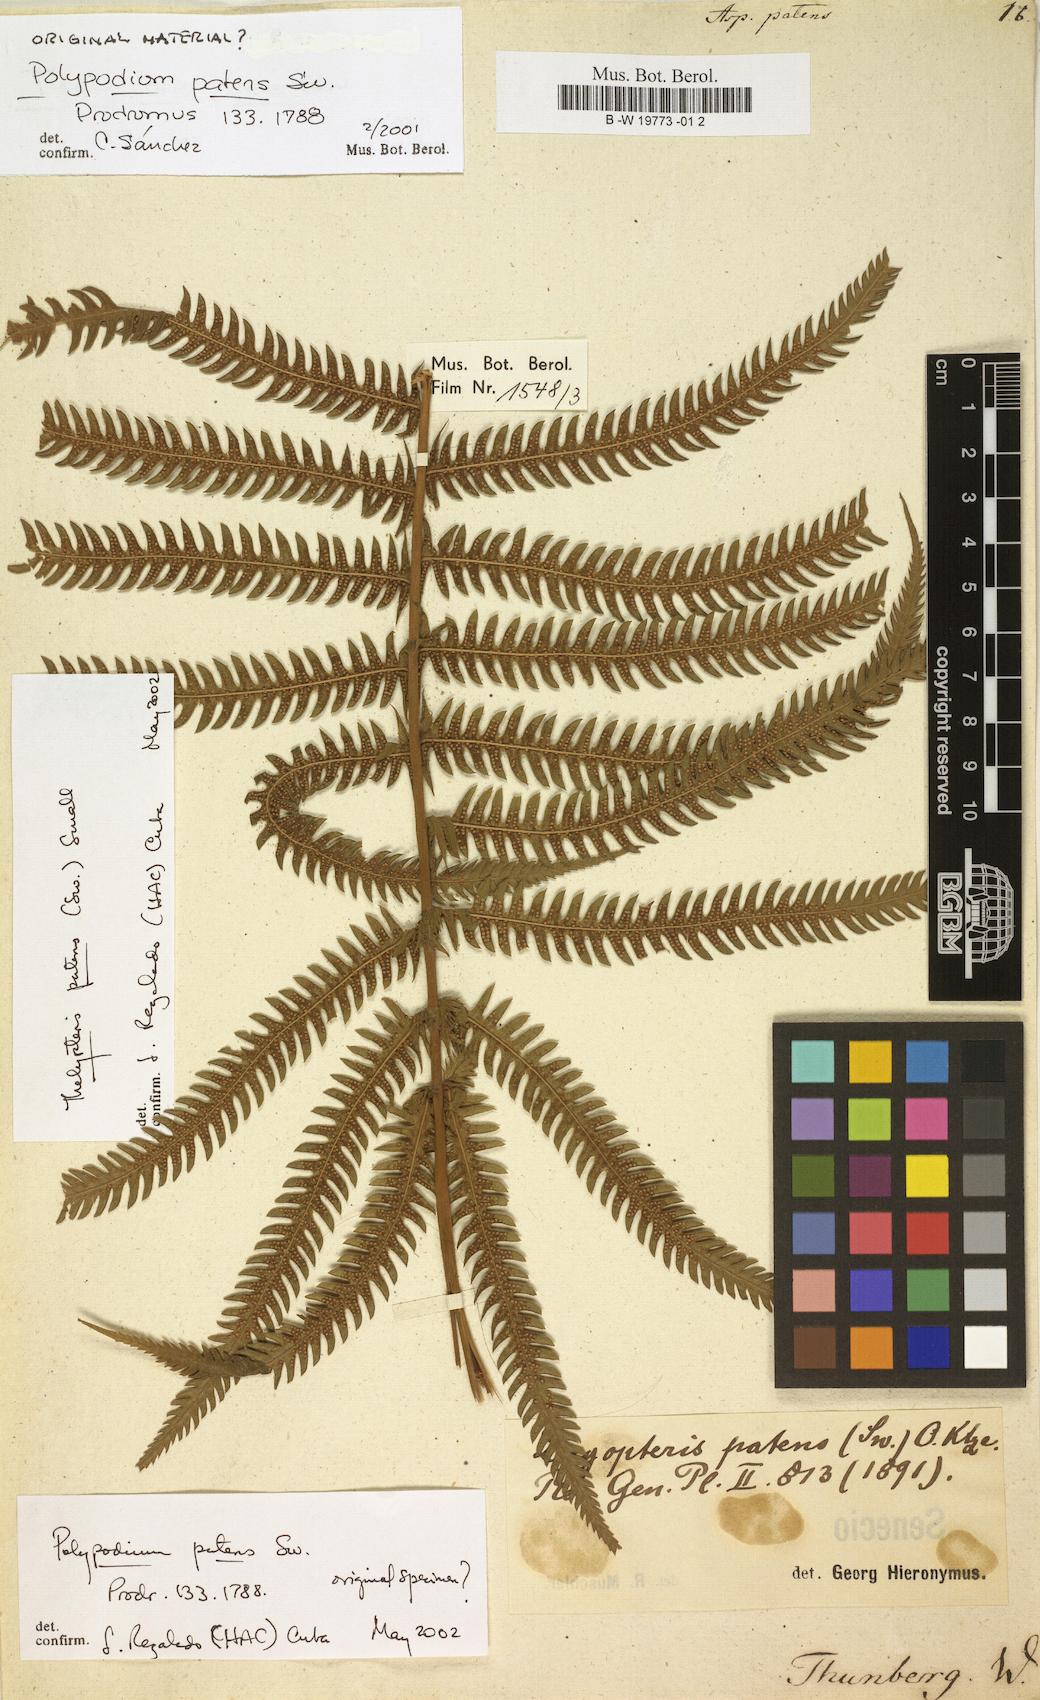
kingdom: Plantae
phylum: Tracheophyta
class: Polypodiopsida
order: Polypodiales
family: Thelypteridaceae
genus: Christella
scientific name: Christella parasitica
